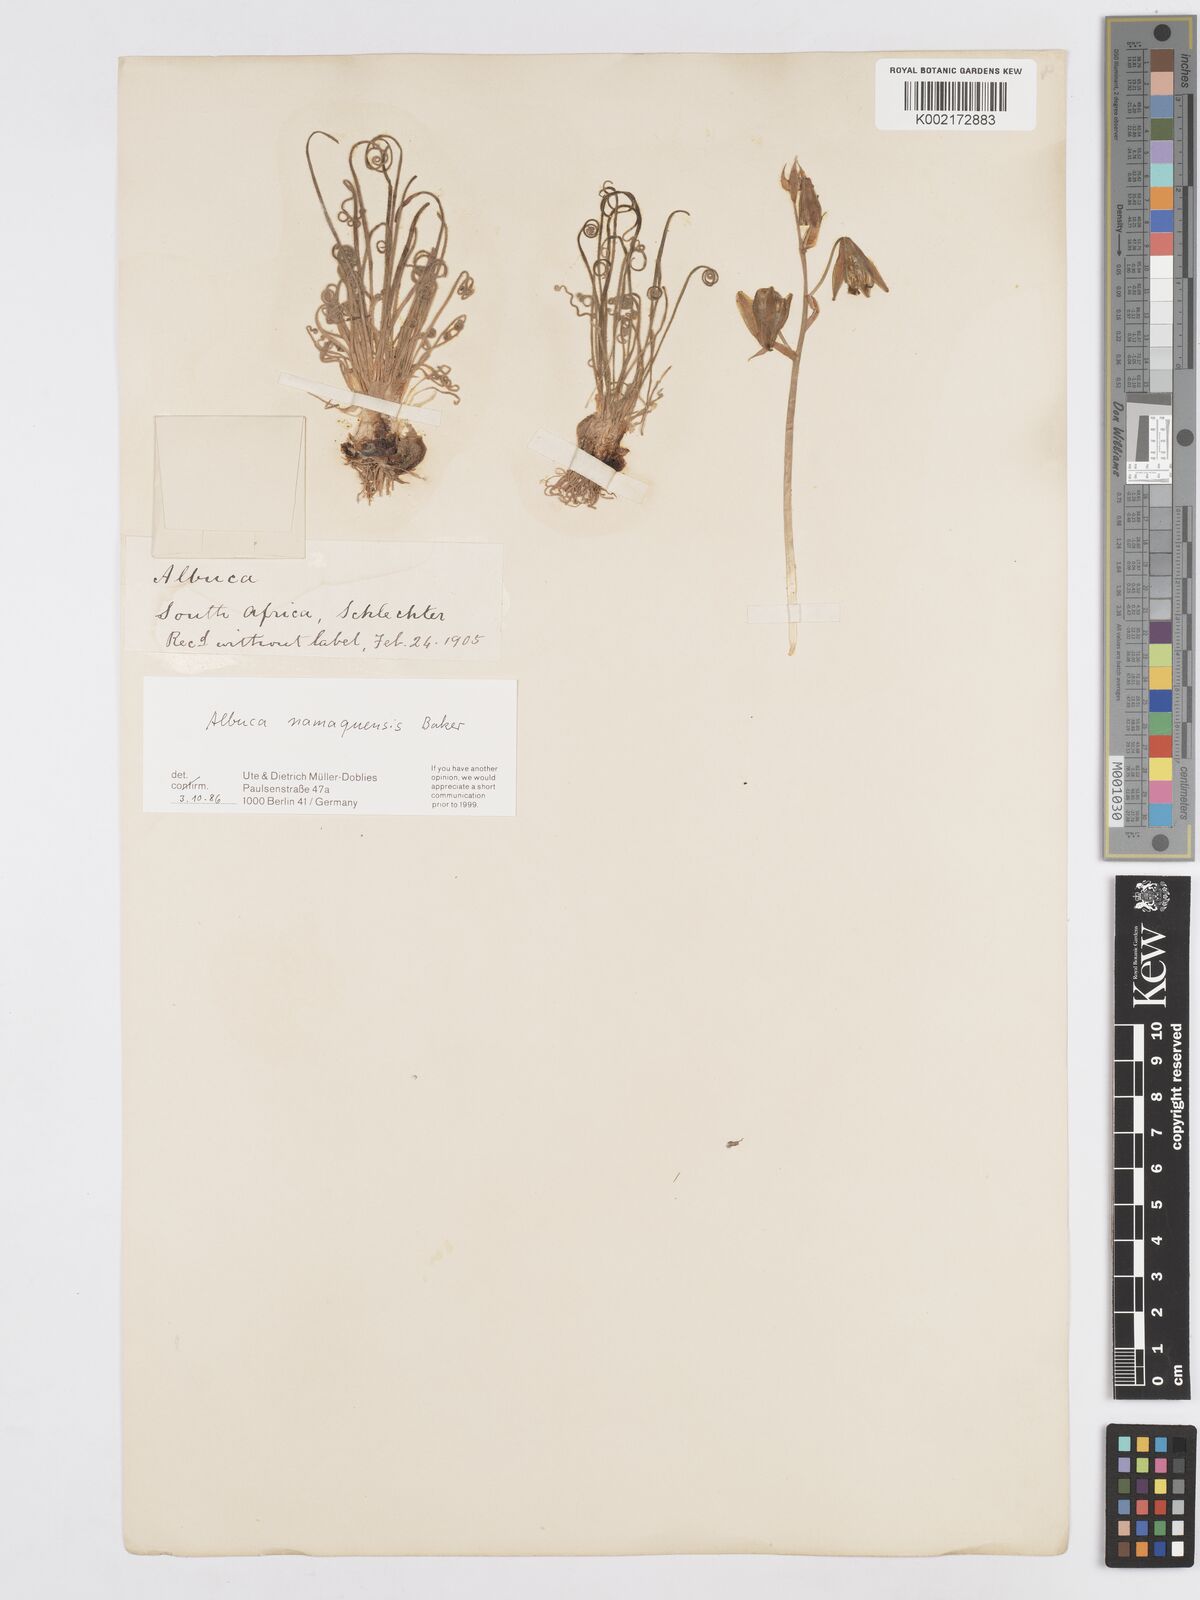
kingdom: Plantae
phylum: Tracheophyta
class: Liliopsida
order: Asparagales
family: Asparagaceae
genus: Albuca
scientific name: Albuca namaquensis
